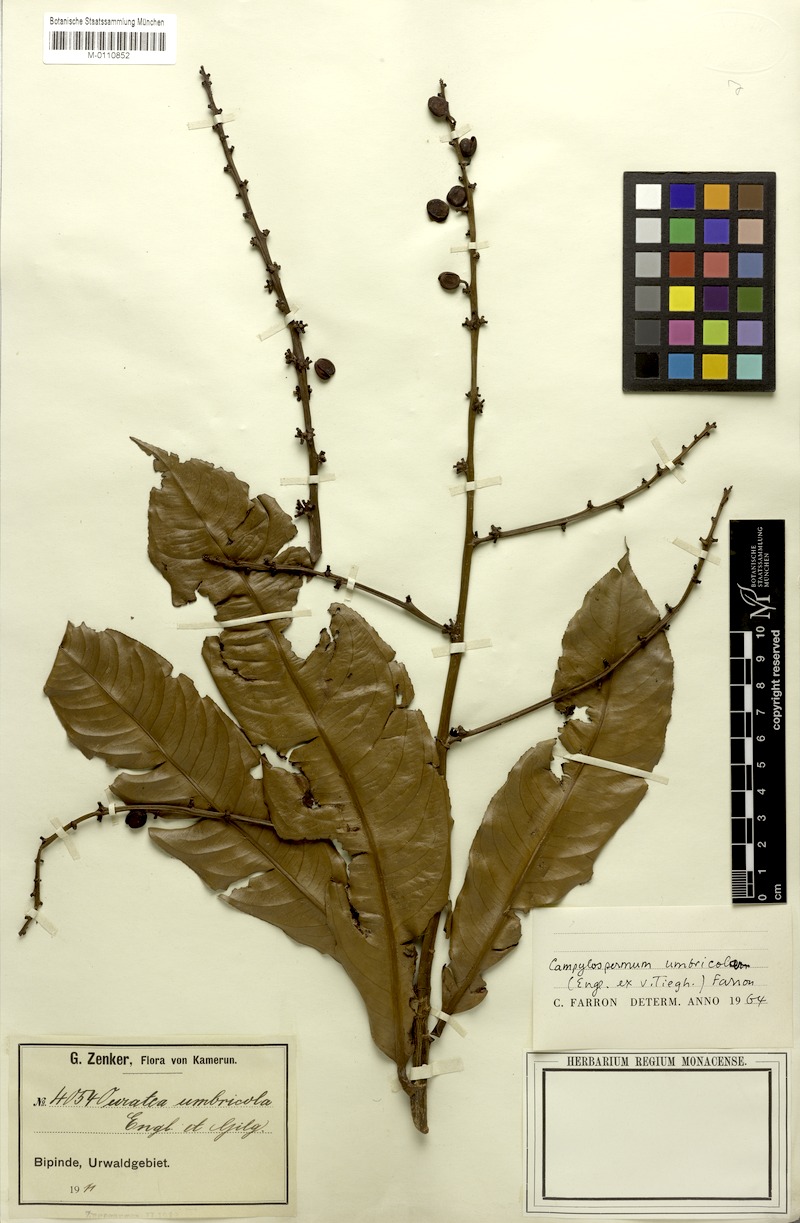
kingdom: Plantae
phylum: Tracheophyta
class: Magnoliopsida
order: Malpighiales
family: Ochnaceae
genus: Campylospermum
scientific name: Campylospermum umbricola
